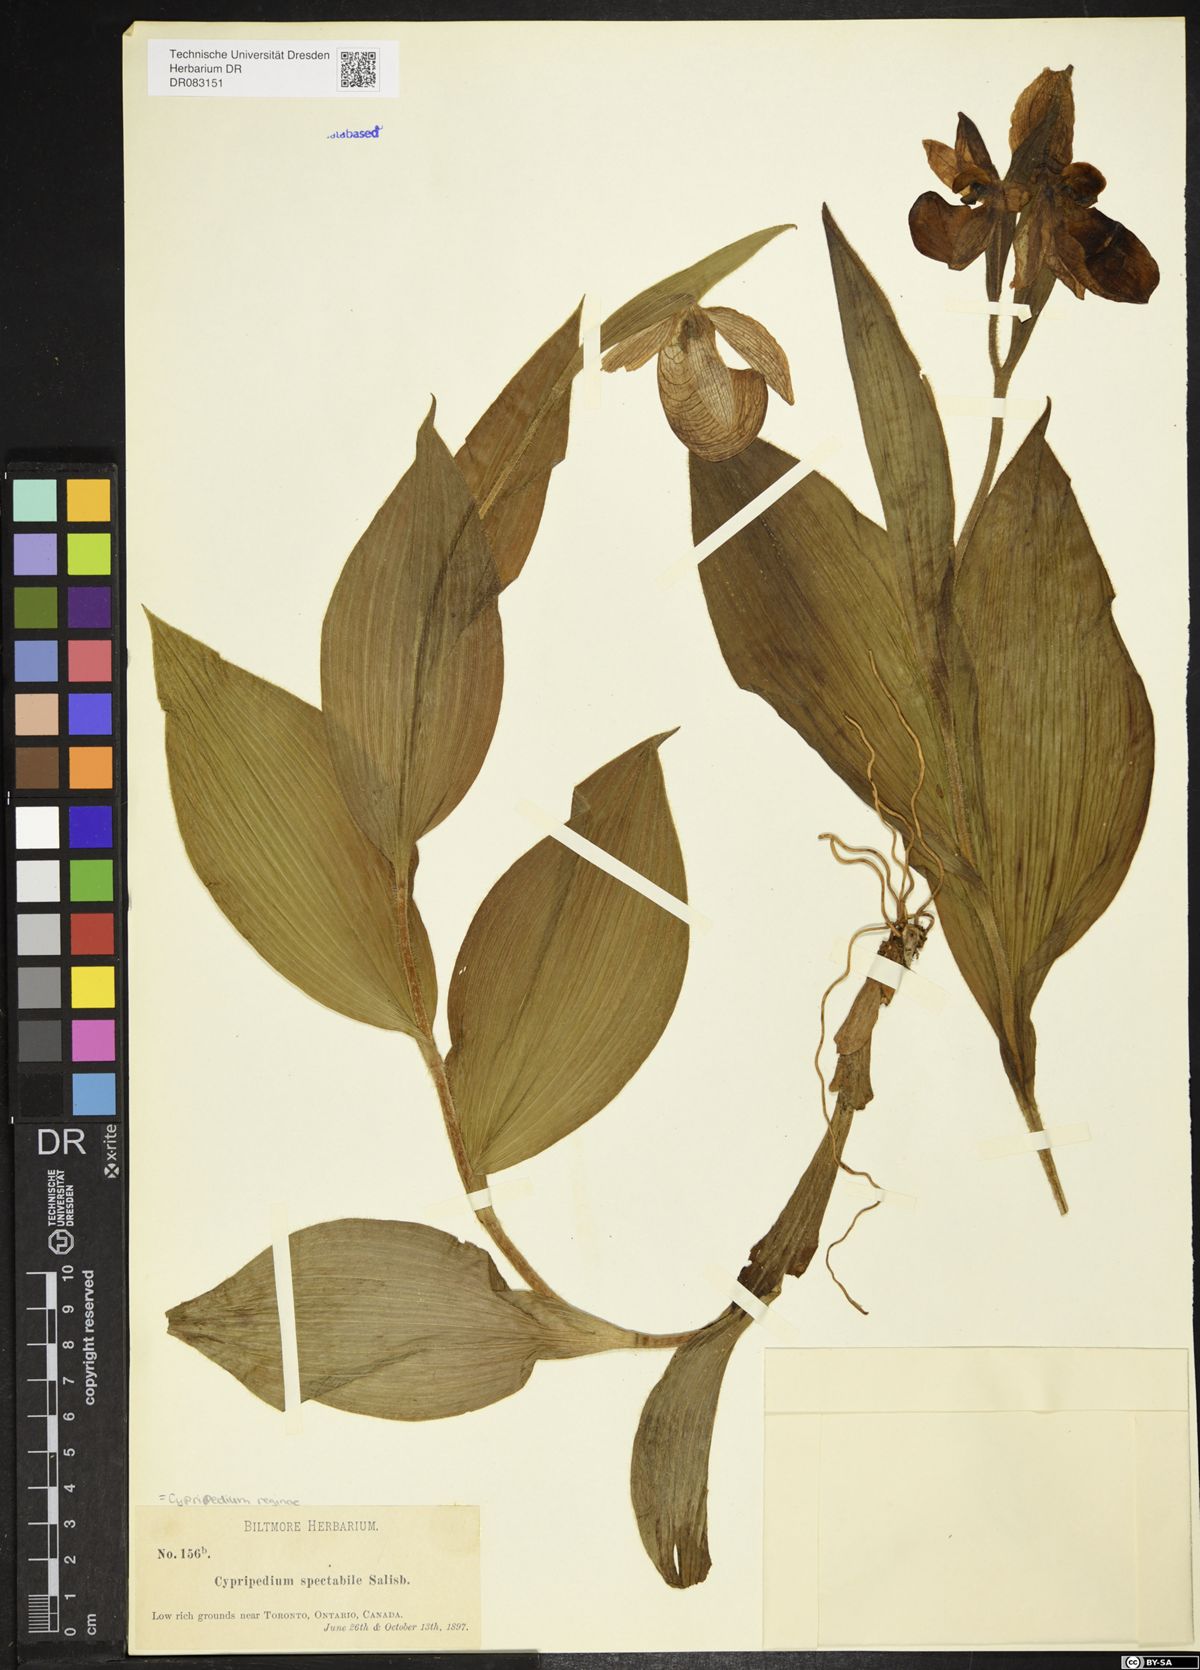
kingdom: Plantae
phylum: Tracheophyta
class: Liliopsida
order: Asparagales
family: Orchidaceae
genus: Cypripedium
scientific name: Cypripedium reginae
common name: Queen lady's-slipper
